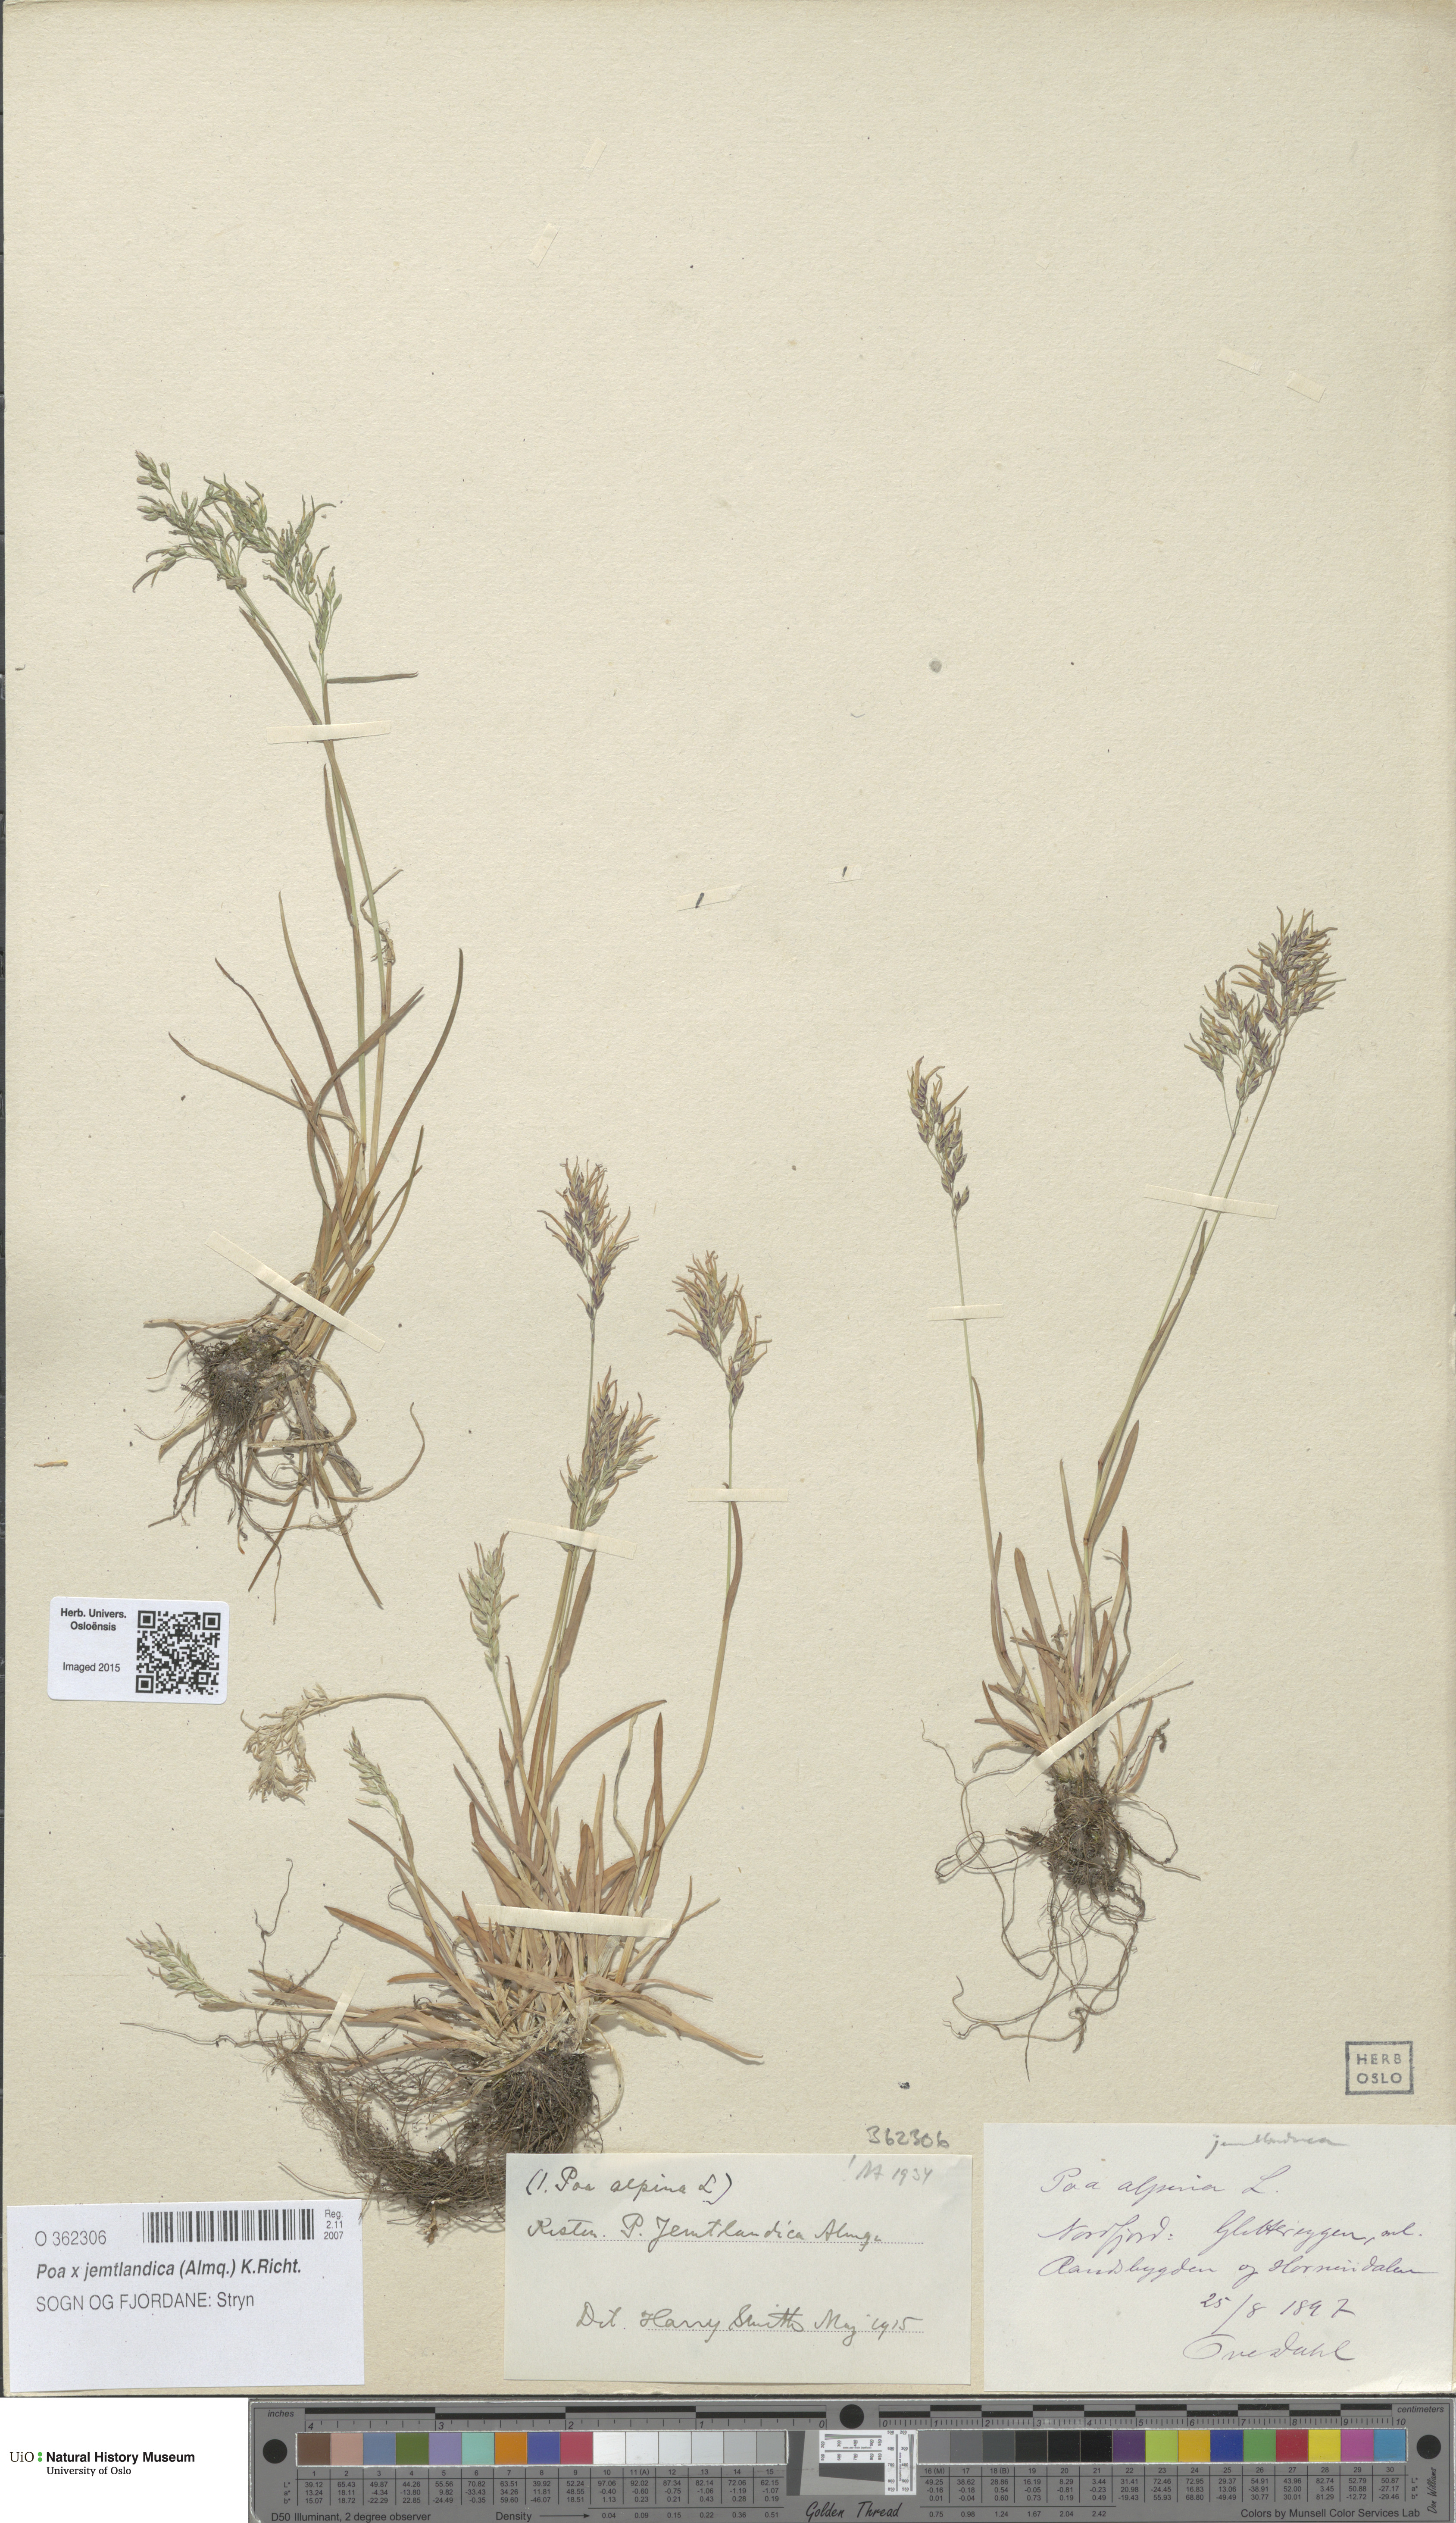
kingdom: Plantae
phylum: Tracheophyta
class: Liliopsida
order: Poales
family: Poaceae
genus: Poa
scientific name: Poa jemtlandica
